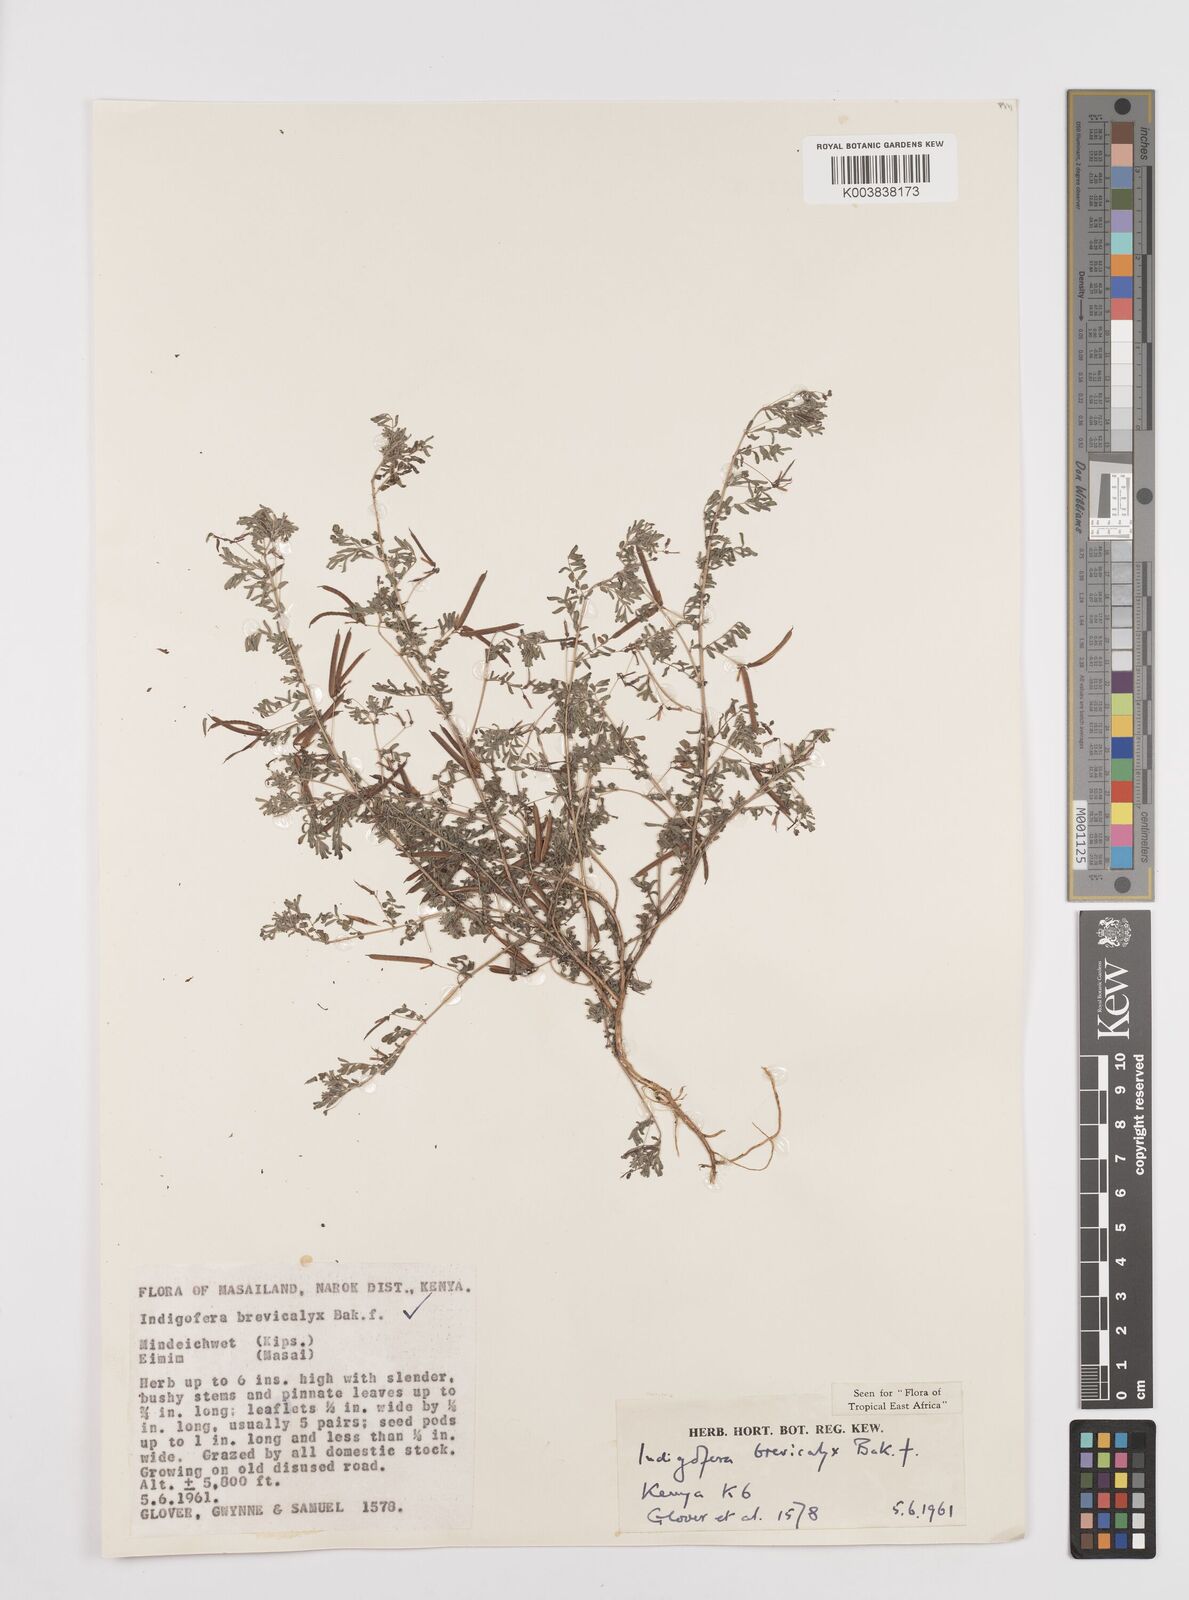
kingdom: Plantae
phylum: Tracheophyta
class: Magnoliopsida
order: Fabales
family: Fabaceae
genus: Indigofera
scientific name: Indigofera brevicalyx
